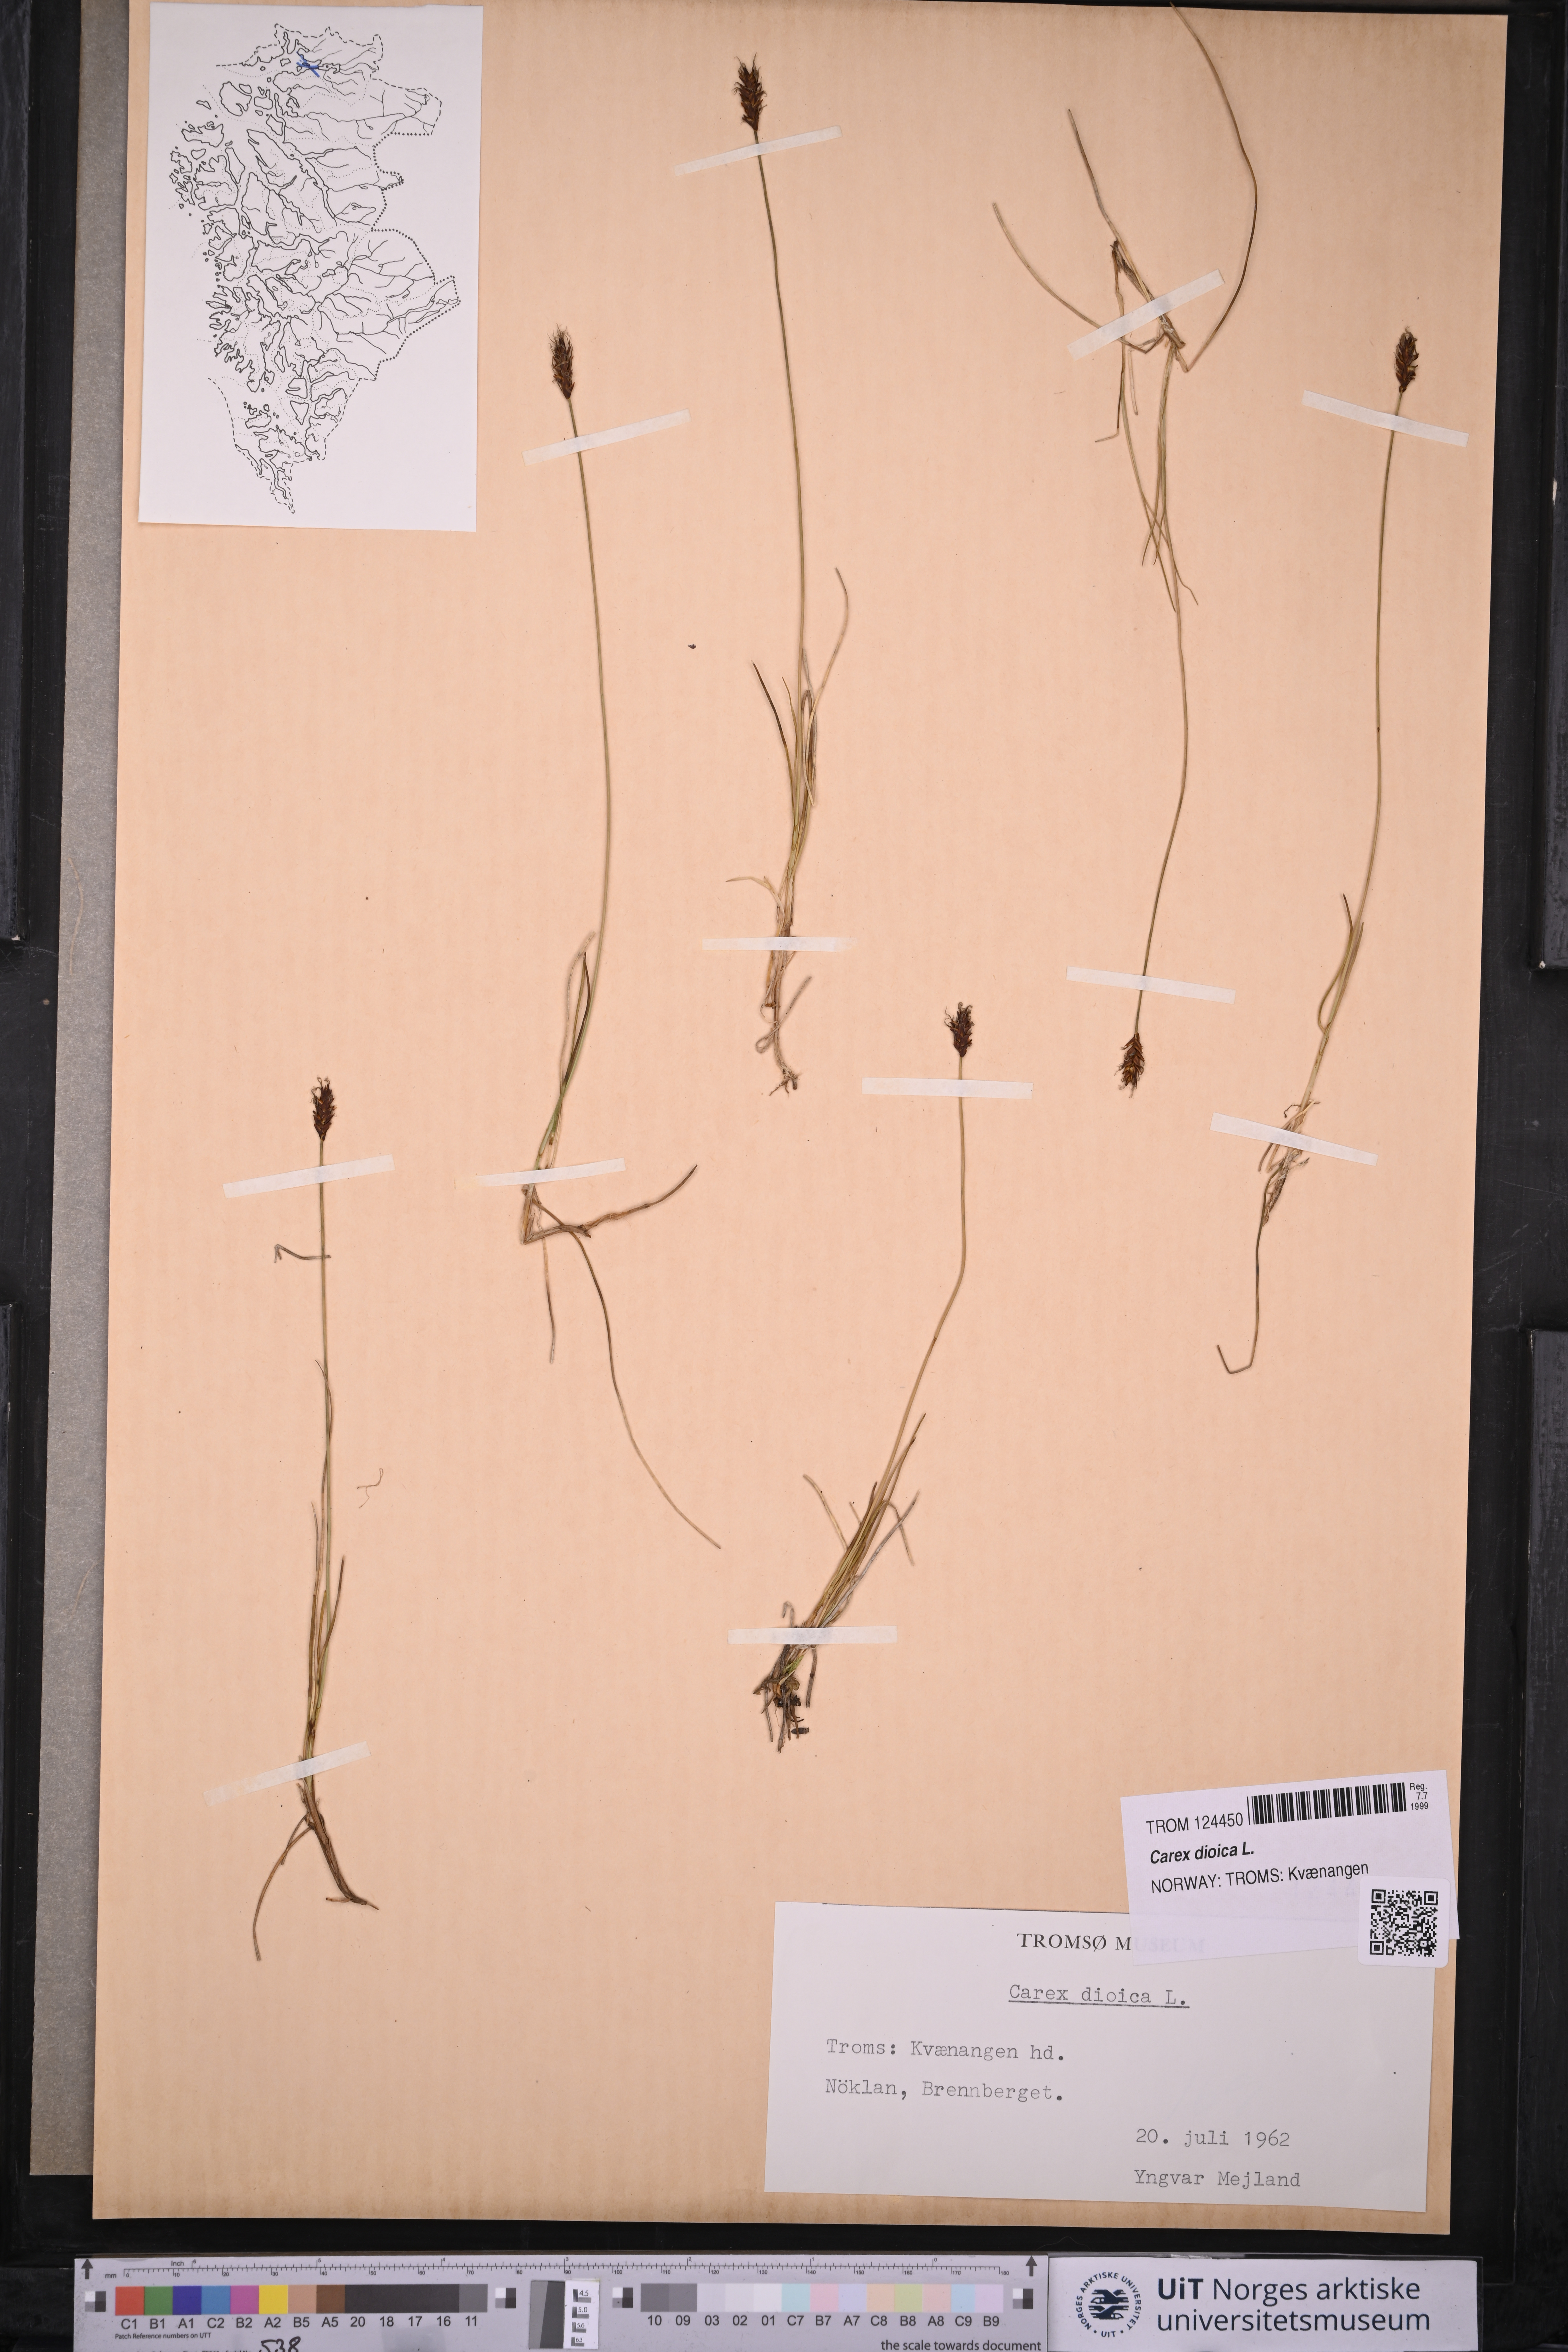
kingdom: Plantae
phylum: Tracheophyta
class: Liliopsida
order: Poales
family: Cyperaceae
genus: Carex
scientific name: Carex dioica
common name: Dioecious sedge
